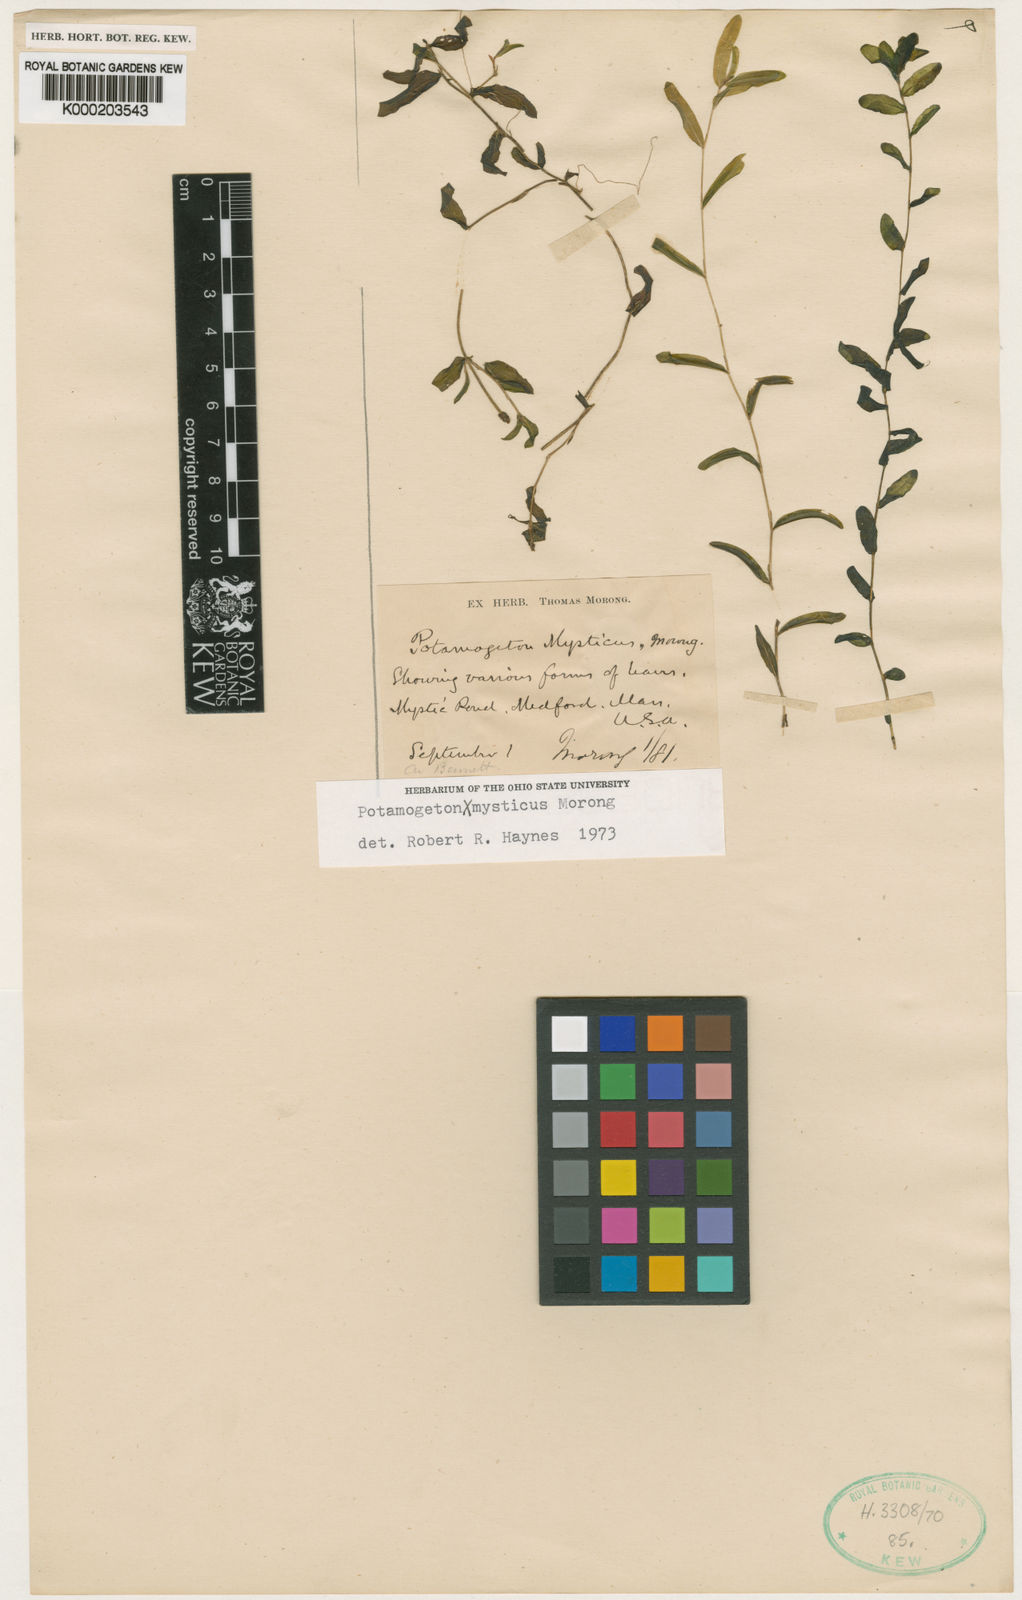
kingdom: Plantae
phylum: Tracheophyta
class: Liliopsida
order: Alismatales
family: Potamogetonaceae
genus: Potamogeton
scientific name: Potamogeton mysticus
